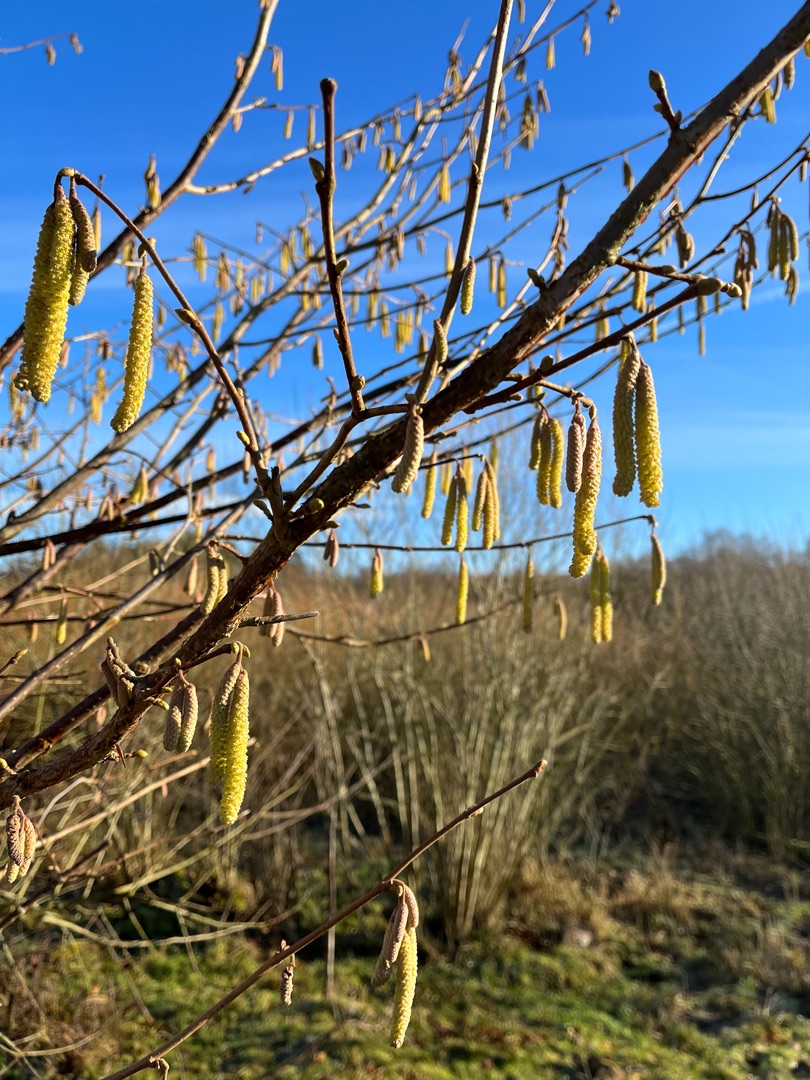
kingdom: Plantae
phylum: Tracheophyta
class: Magnoliopsida
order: Fagales
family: Betulaceae
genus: Corylus
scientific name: Corylus avellana
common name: Hassel
